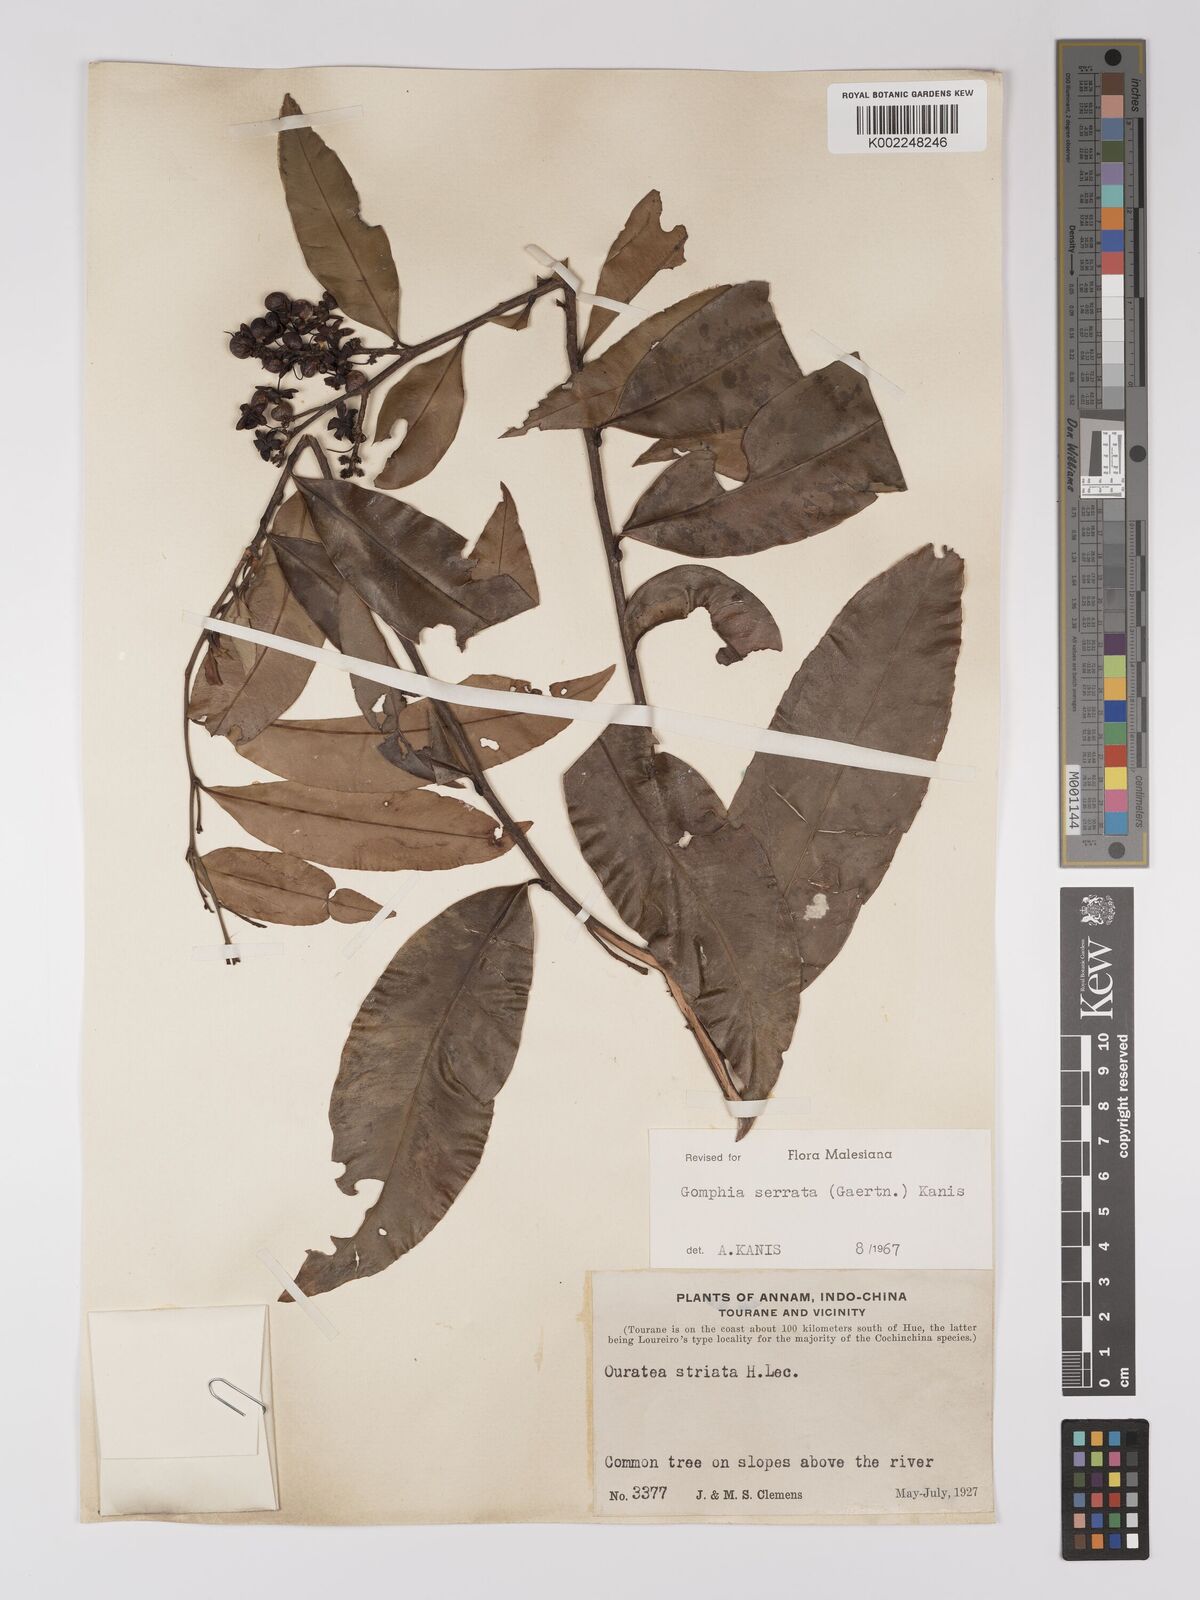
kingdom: Plantae
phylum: Tracheophyta
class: Magnoliopsida
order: Malpighiales
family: Ochnaceae
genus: Gomphia
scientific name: Gomphia serrata
